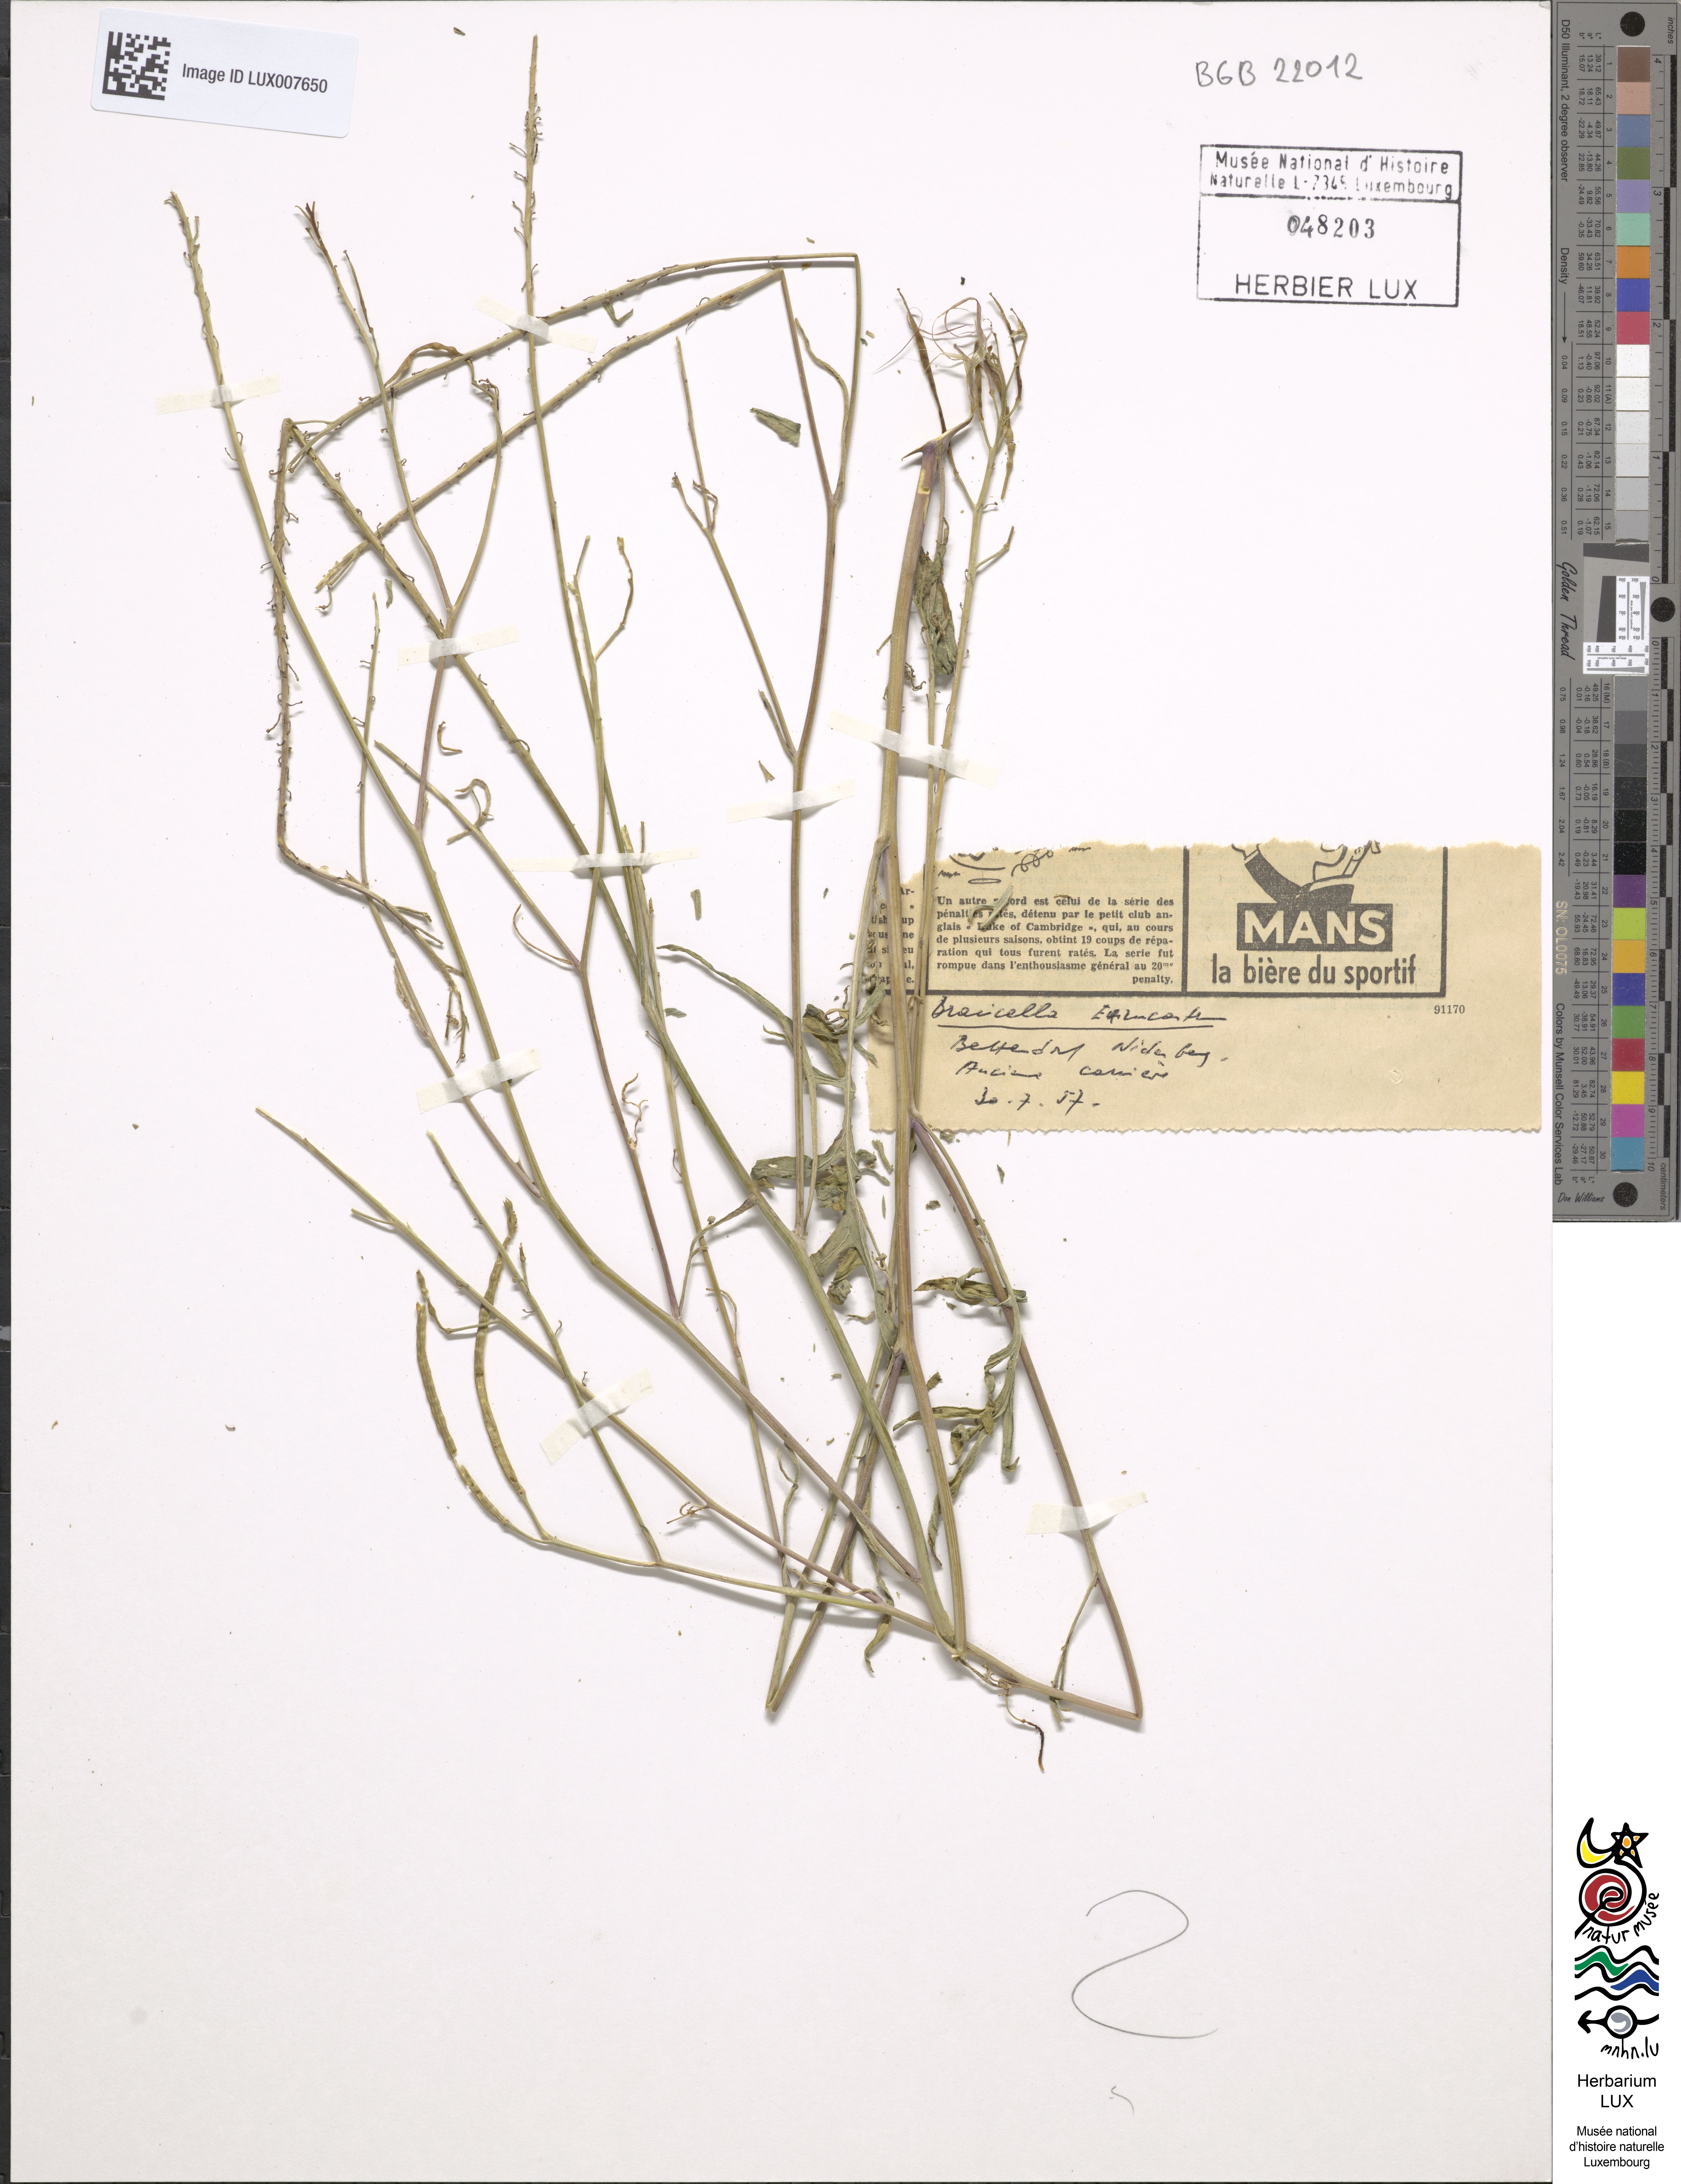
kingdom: Plantae
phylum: Tracheophyta
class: Magnoliopsida
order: Brassicales
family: Brassicaceae
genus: Erucastrum
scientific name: Erucastrum nasturtiifolium
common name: Watercress-leaf rocket
